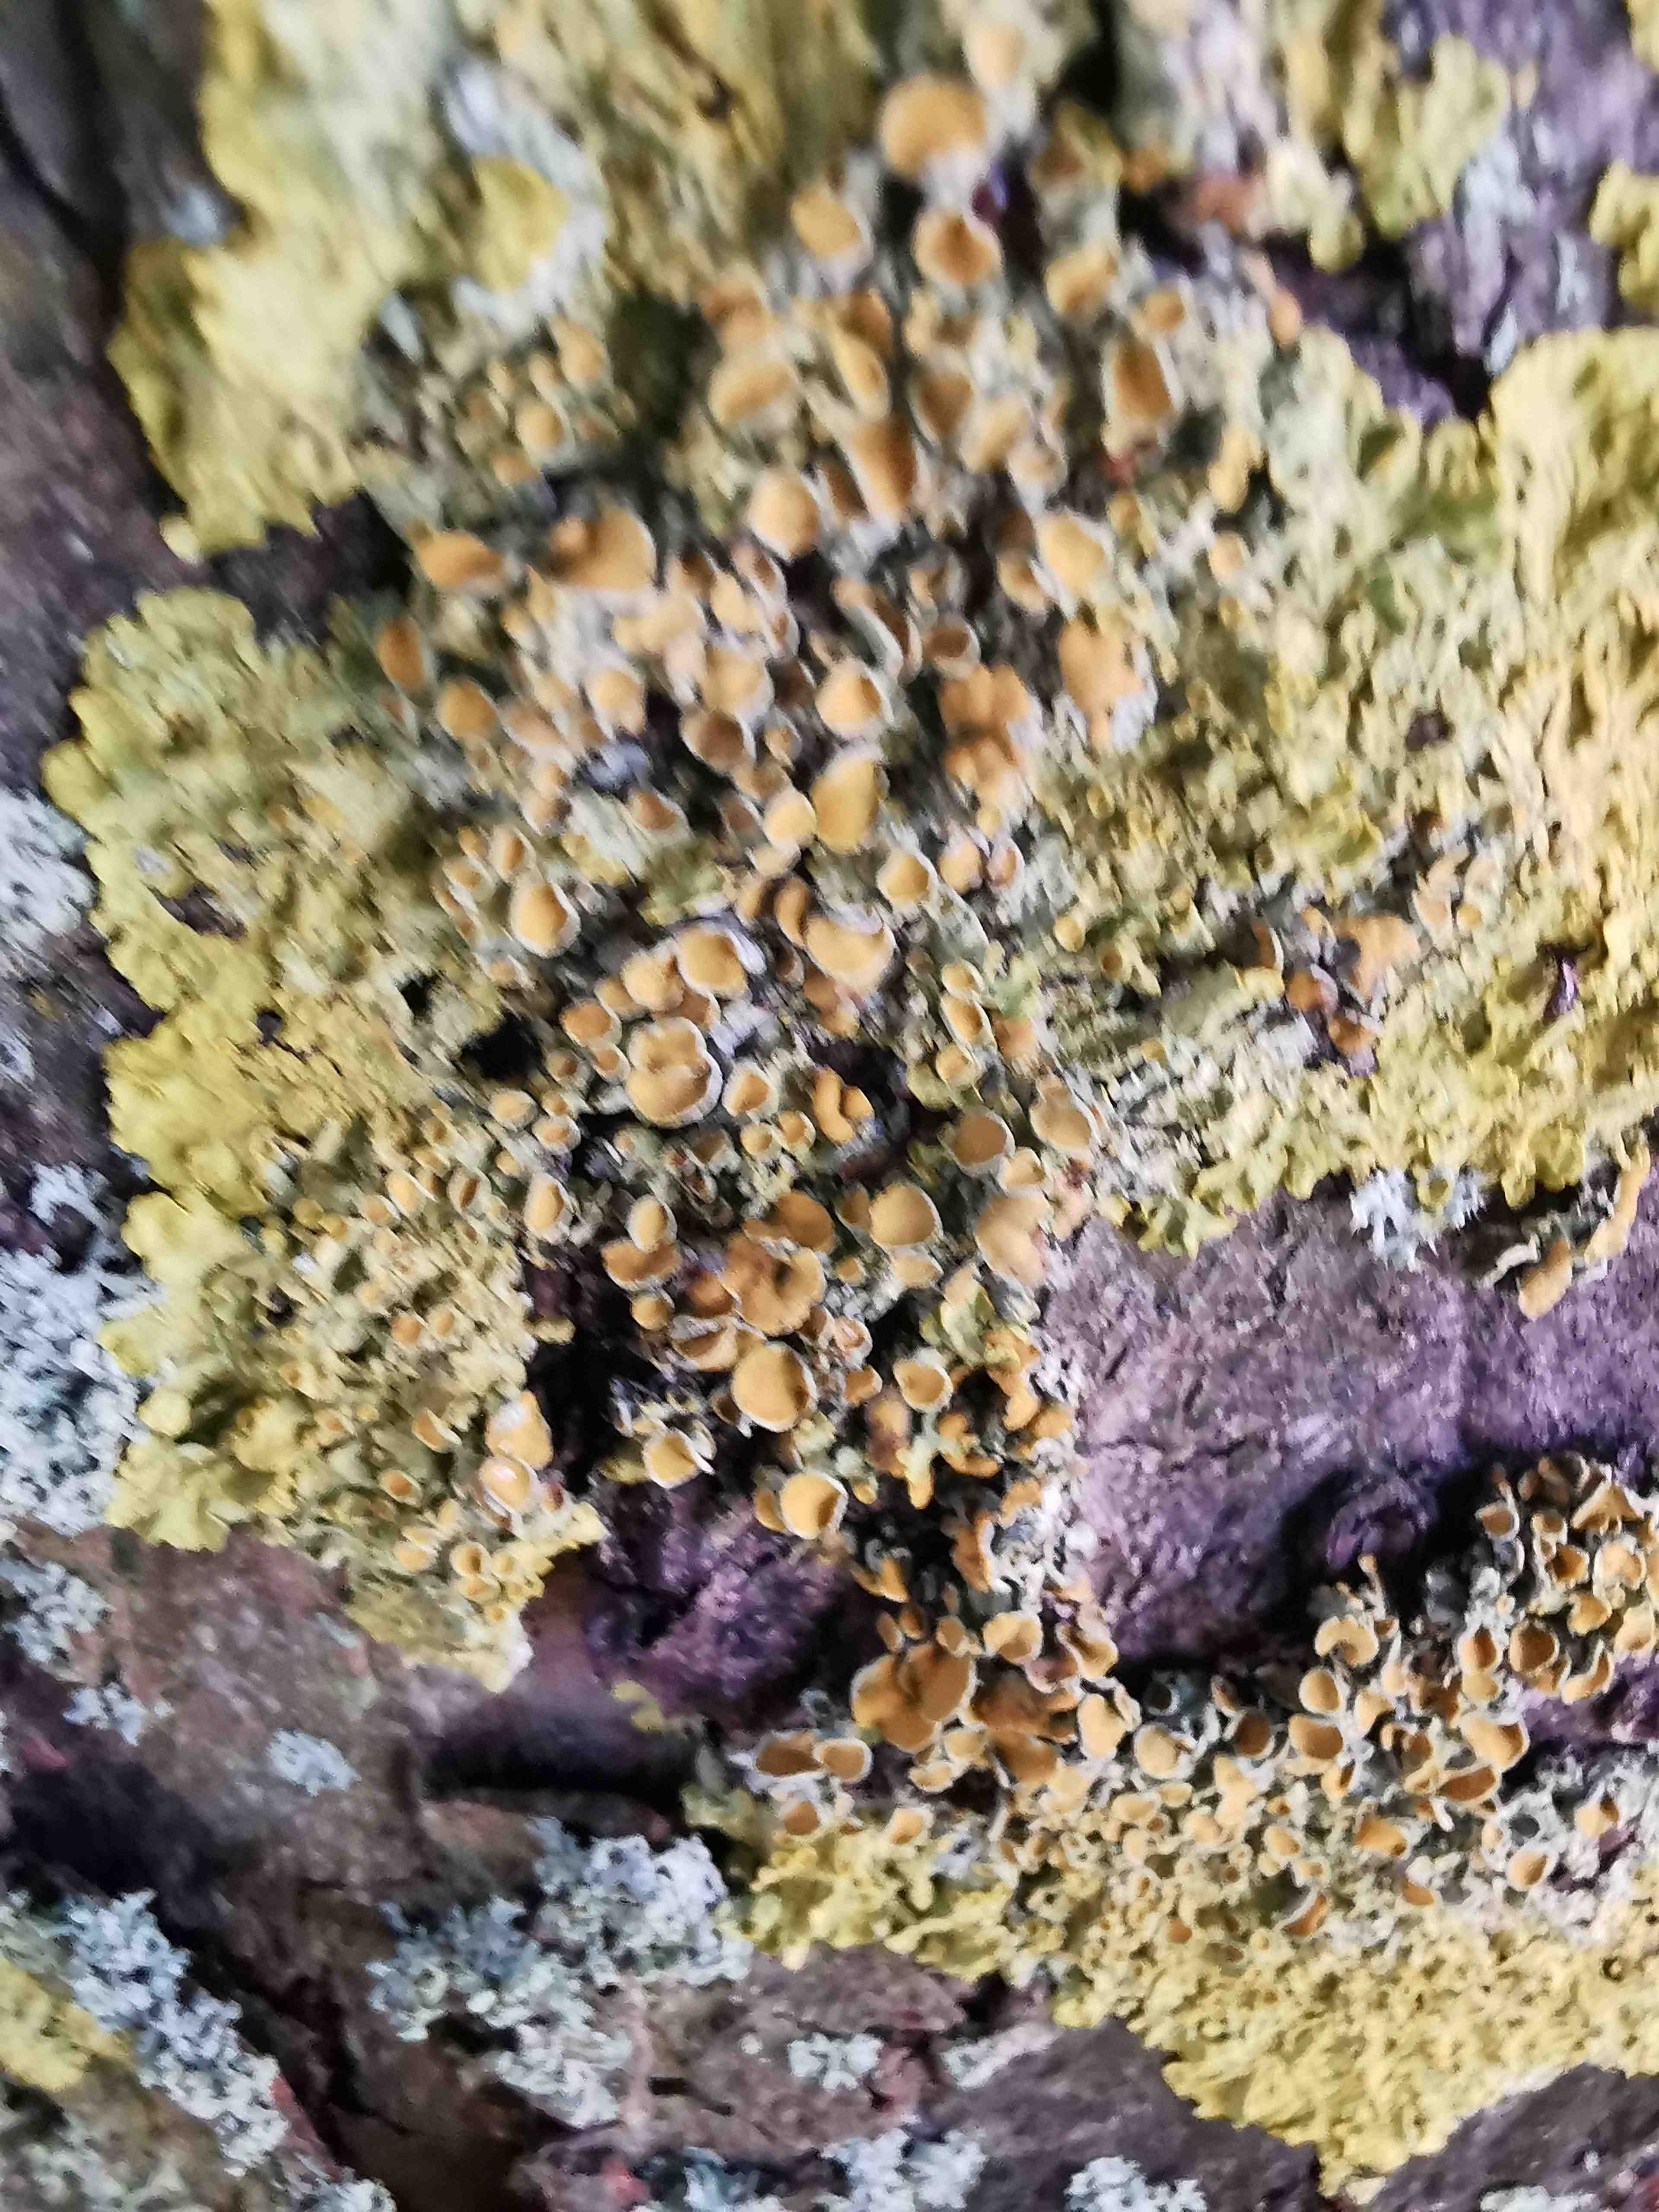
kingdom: Fungi
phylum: Ascomycota
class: Lecanoromycetes
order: Teloschistales
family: Teloschistaceae
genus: Xanthoria
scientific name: Xanthoria parietina
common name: almindelig væggelav
